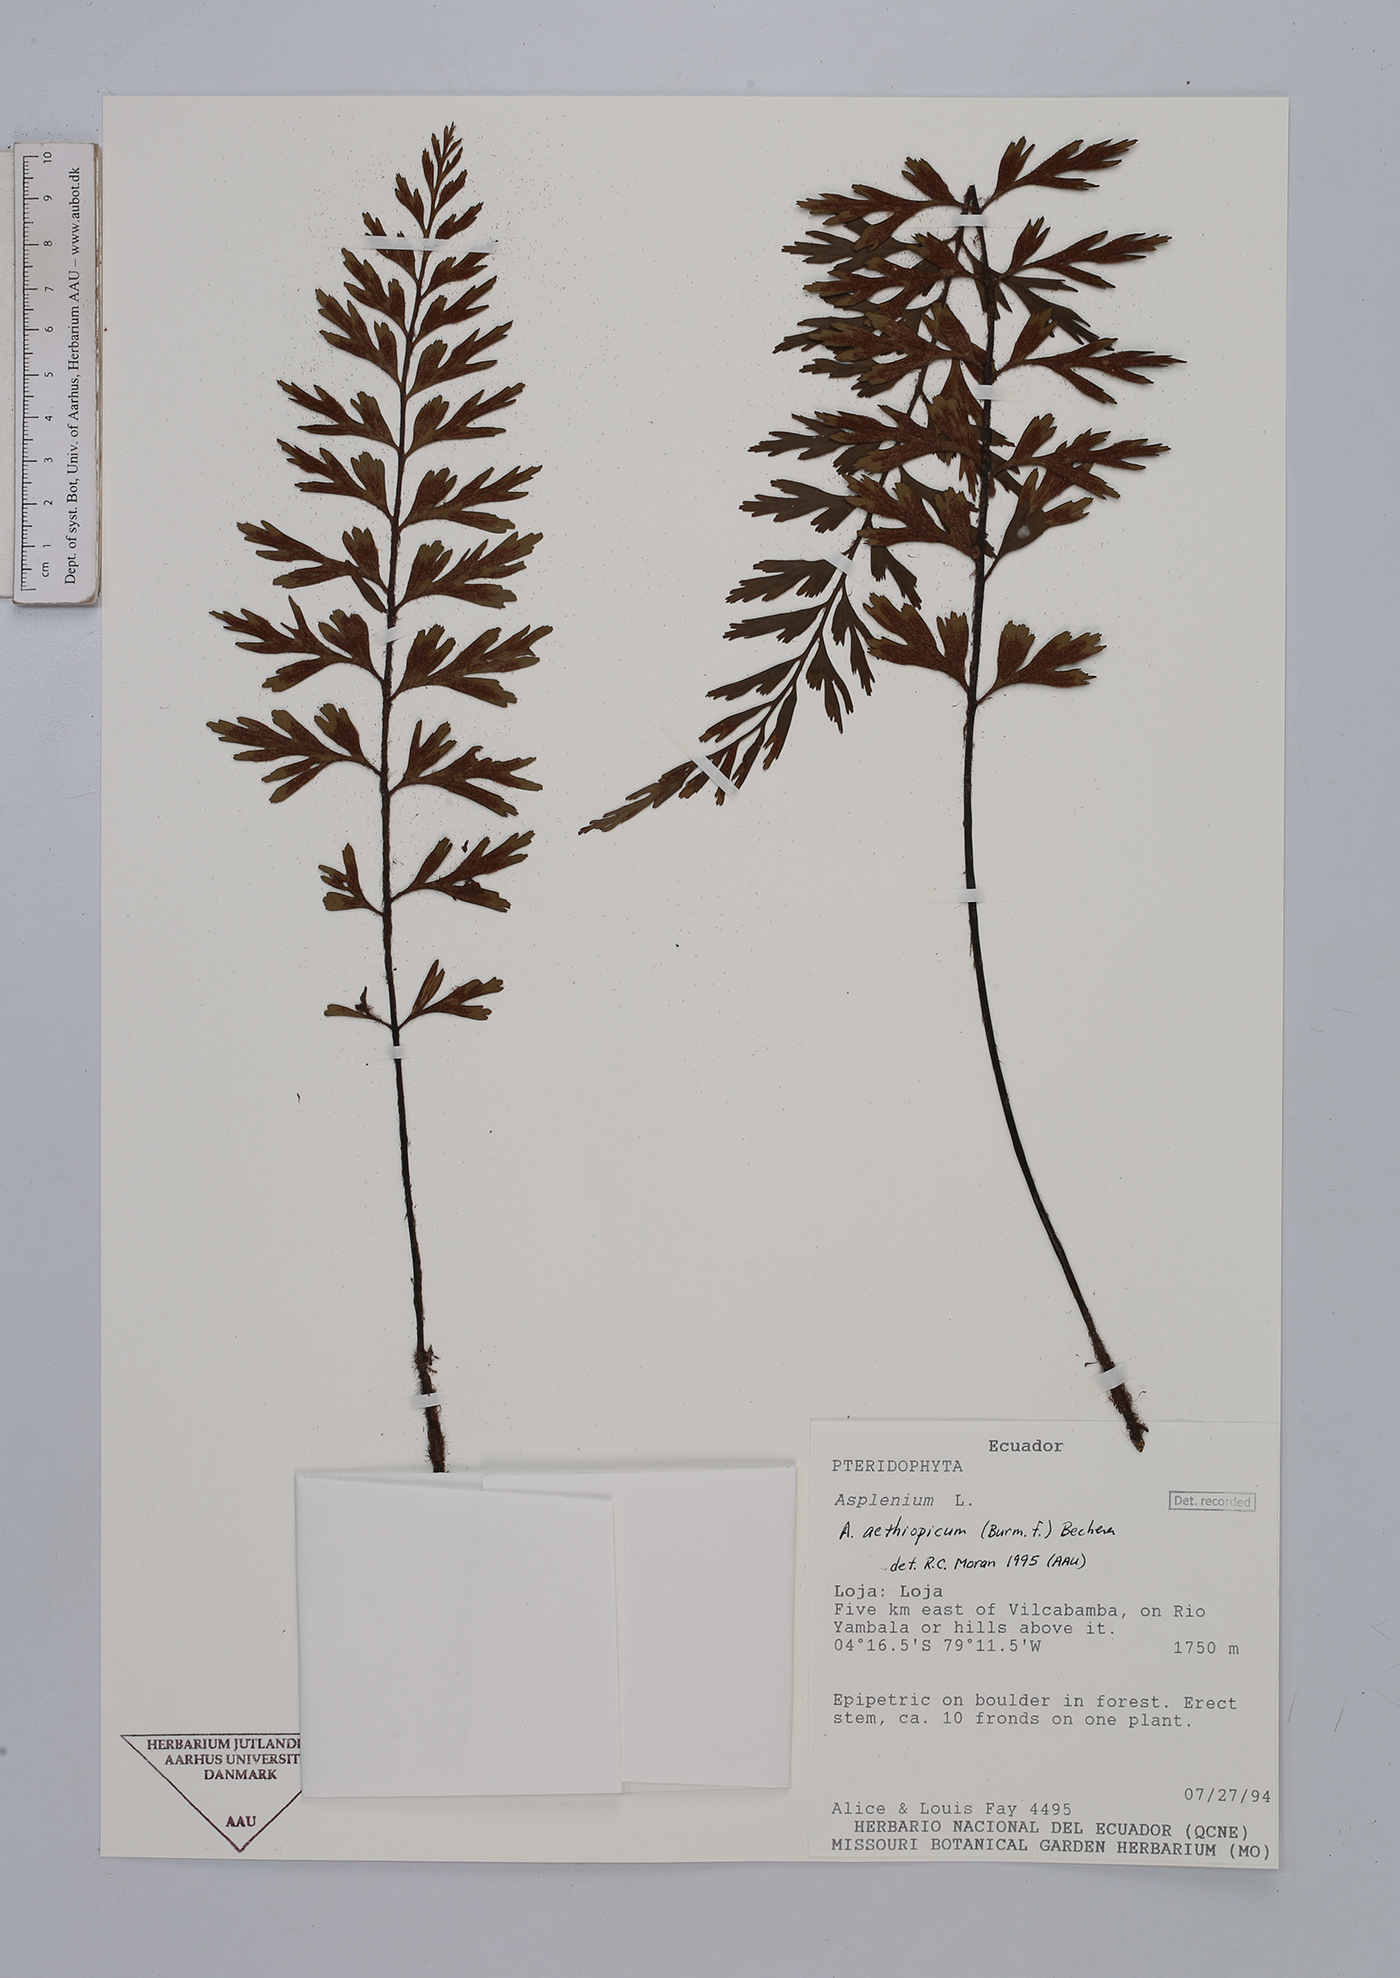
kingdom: Plantae
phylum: Tracheophyta
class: Polypodiopsida
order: Polypodiales
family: Aspleniaceae
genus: Asplenium
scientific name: Asplenium aethiopicum
